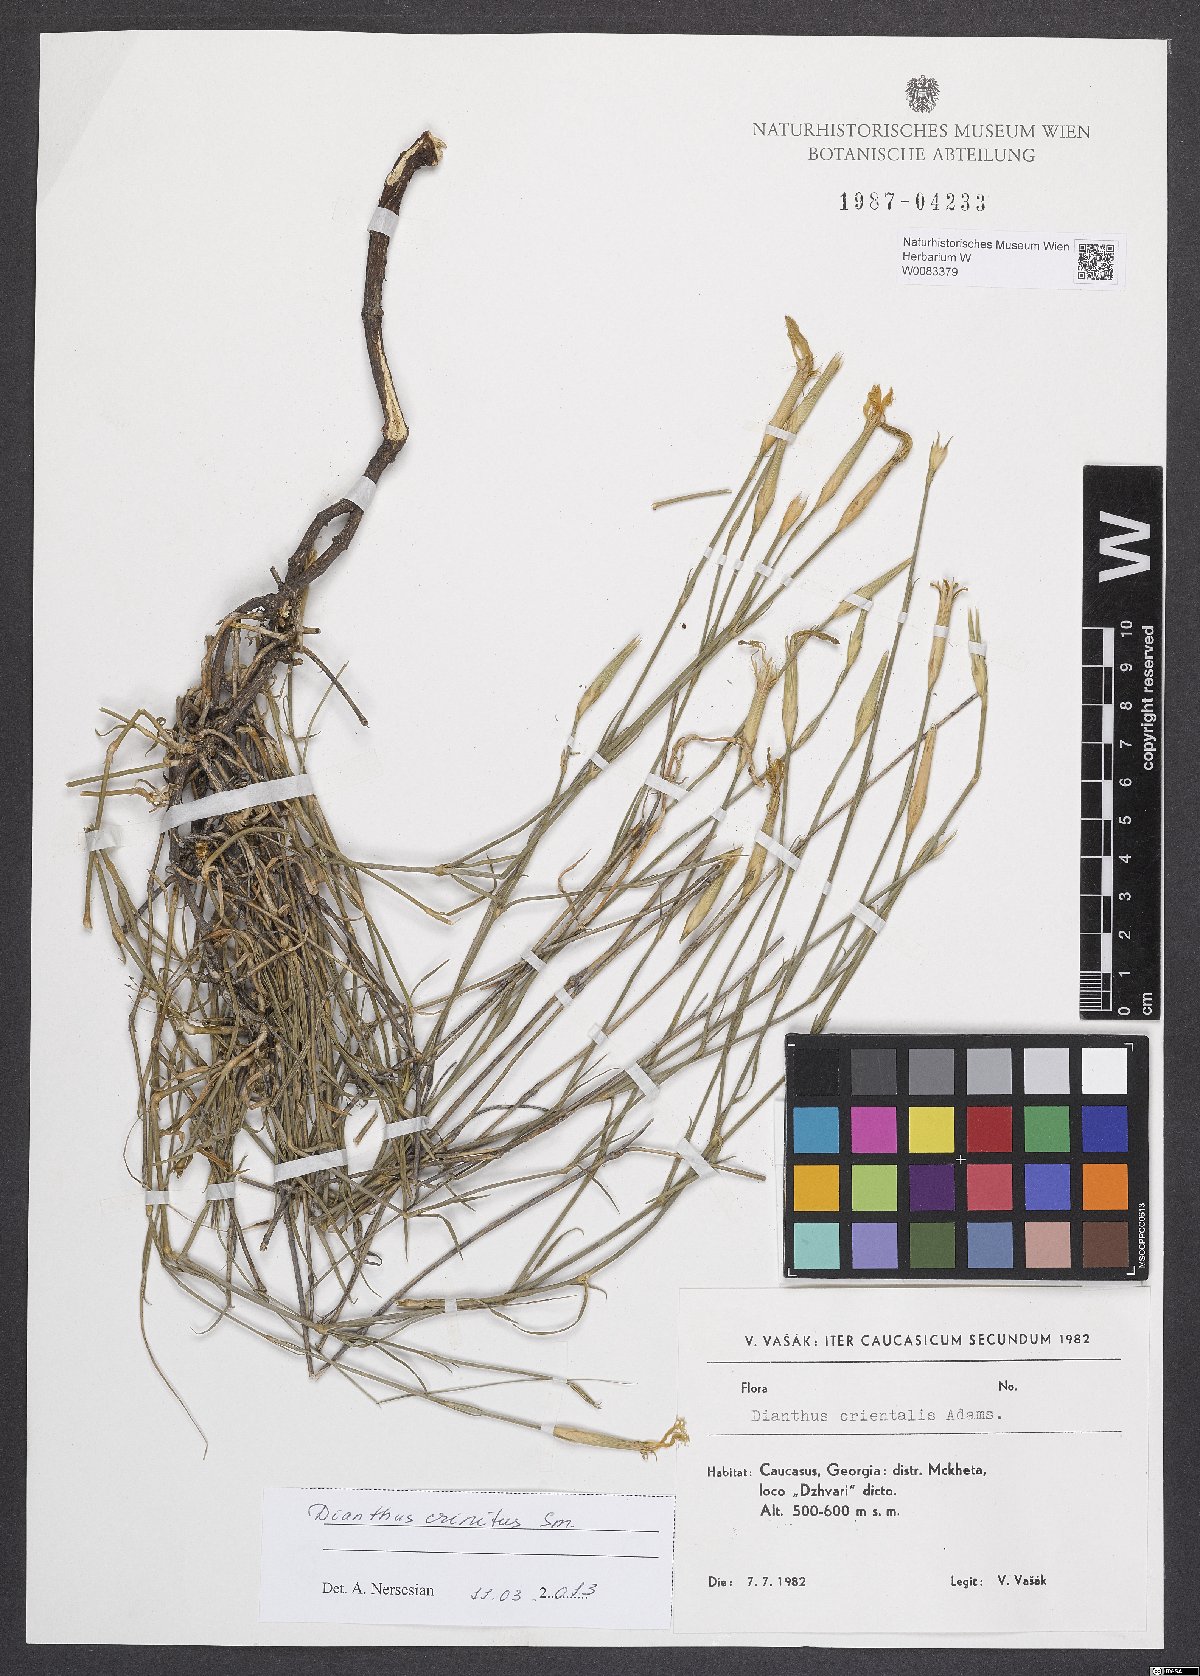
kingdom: Plantae
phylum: Tracheophyta
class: Magnoliopsida
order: Caryophyllales
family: Caryophyllaceae
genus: Dianthus
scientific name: Dianthus crinitus
